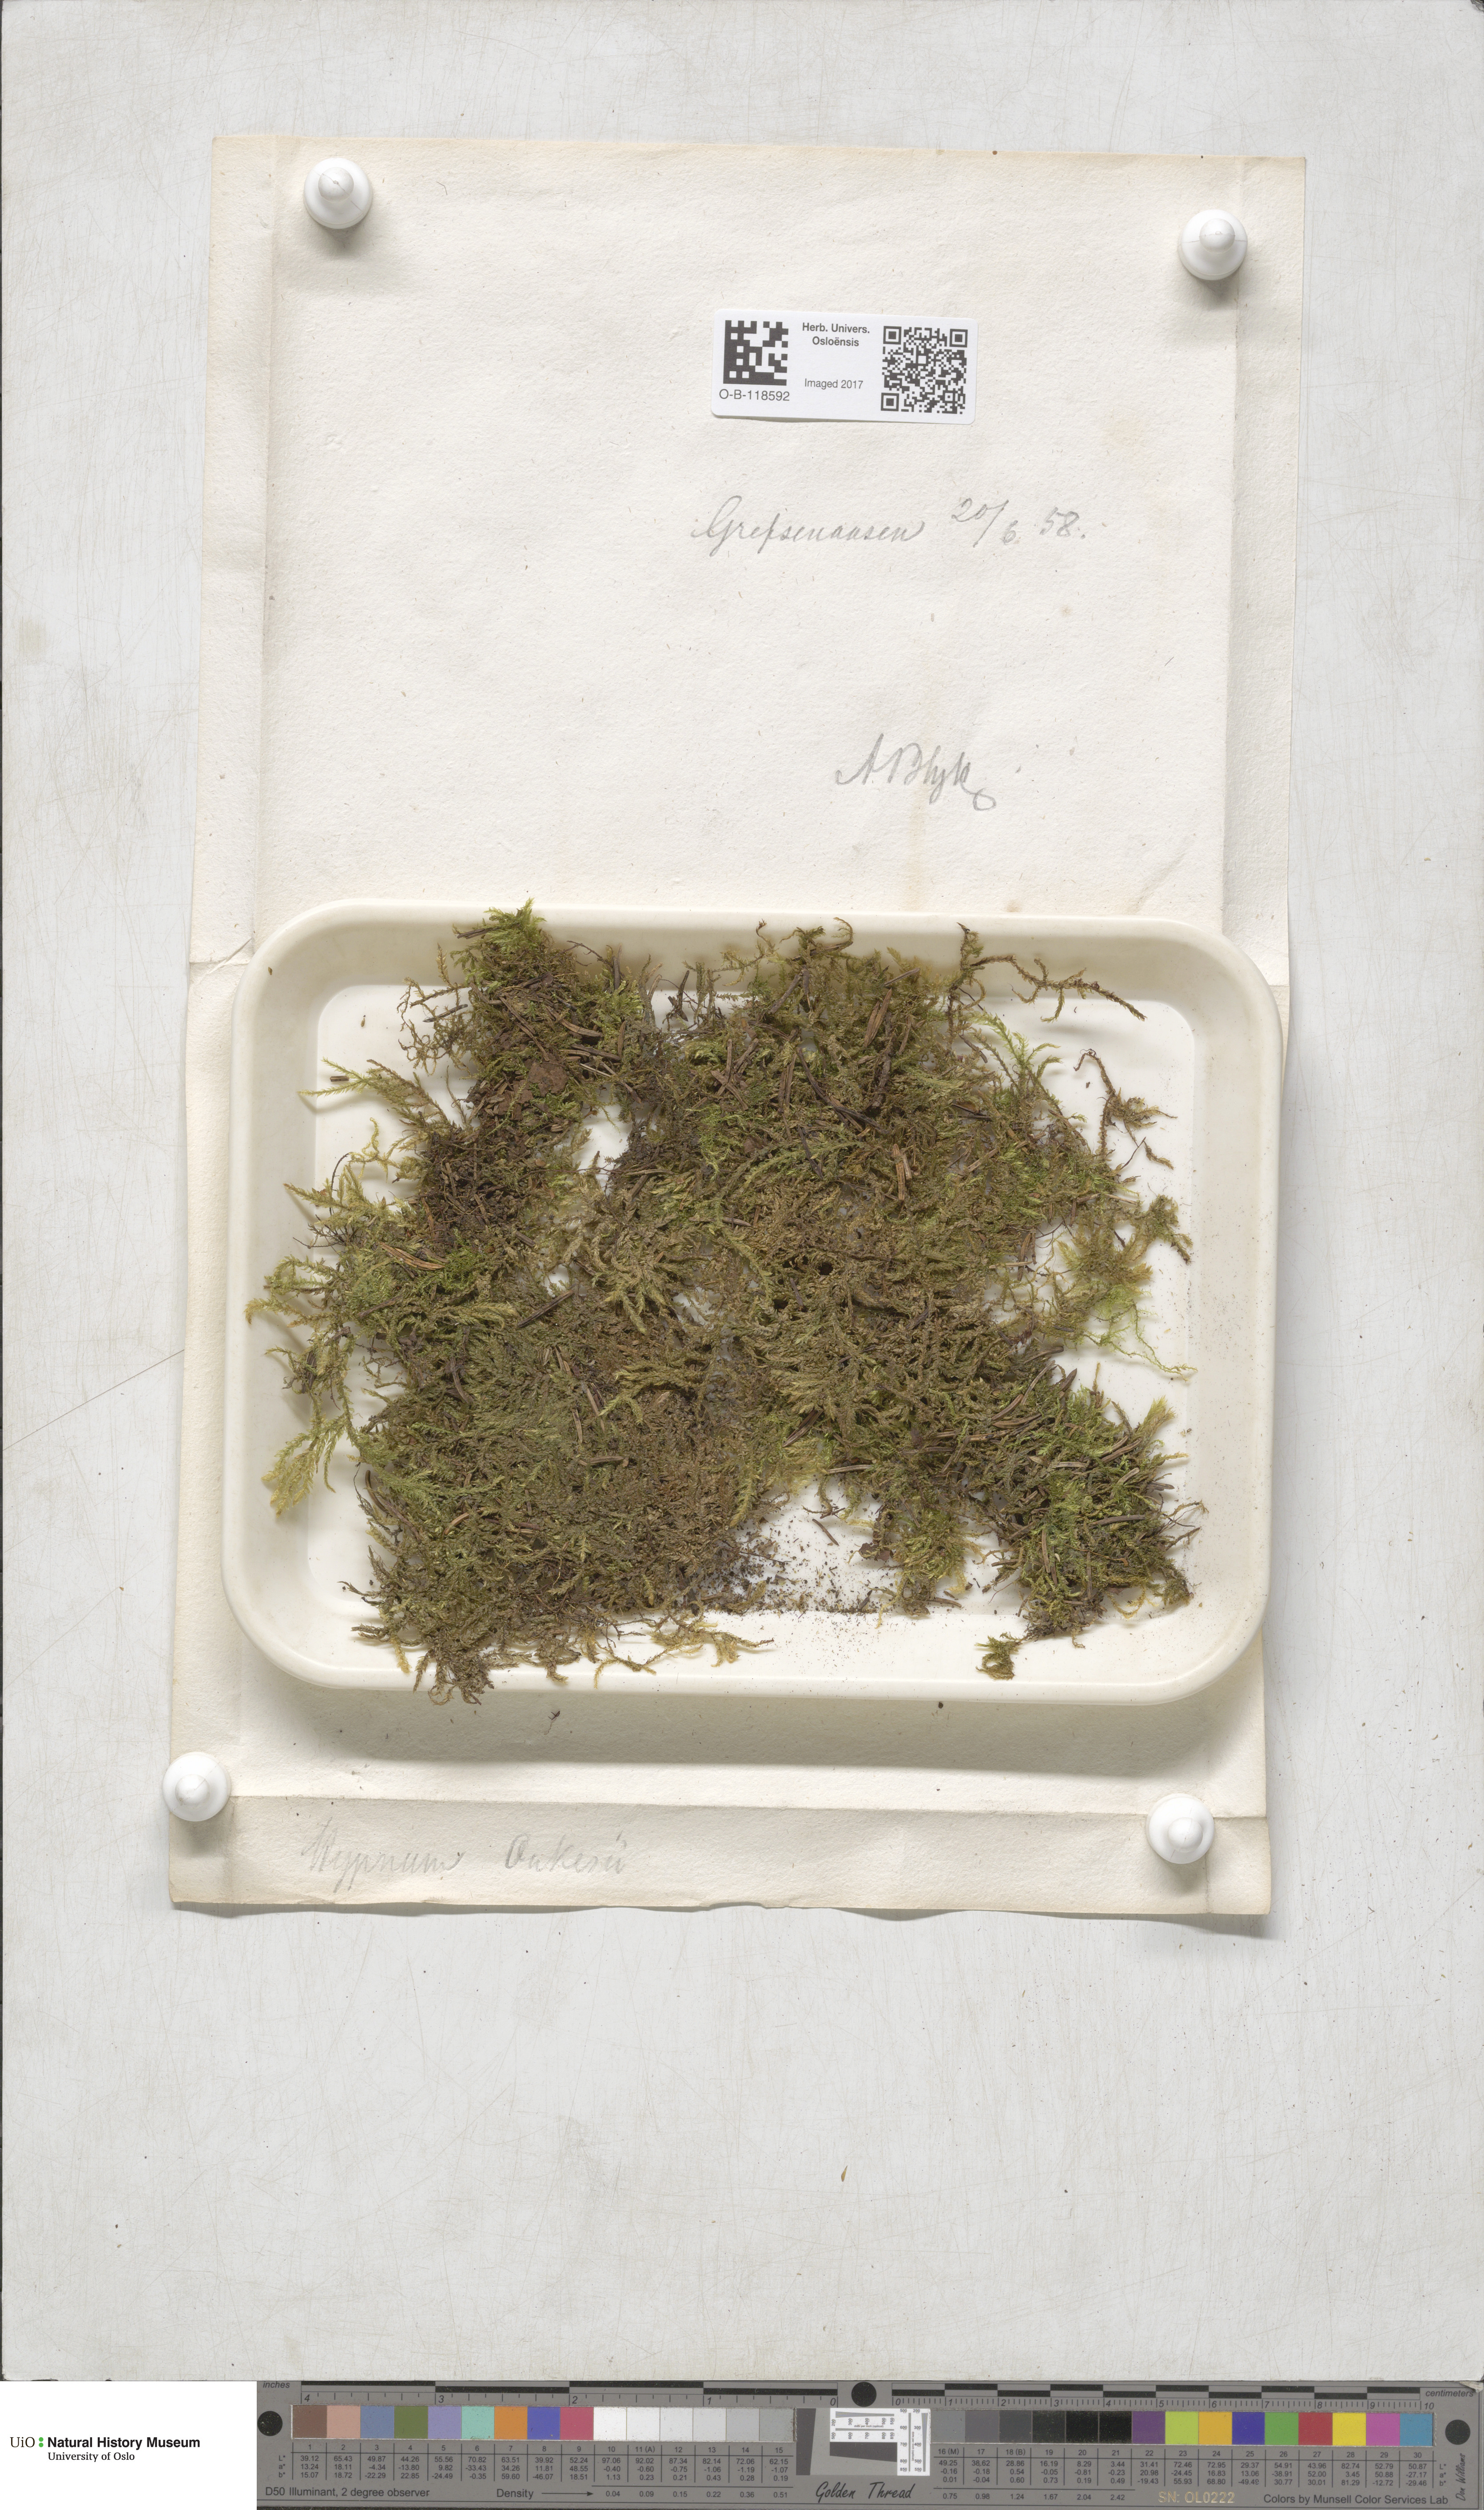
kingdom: Plantae
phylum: Bryophyta
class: Bryopsida
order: Hypnales
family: Hylocomiaceae
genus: Hylocomiastrum
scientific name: Hylocomiastrum pyrenaicum
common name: Oake s wood moss
